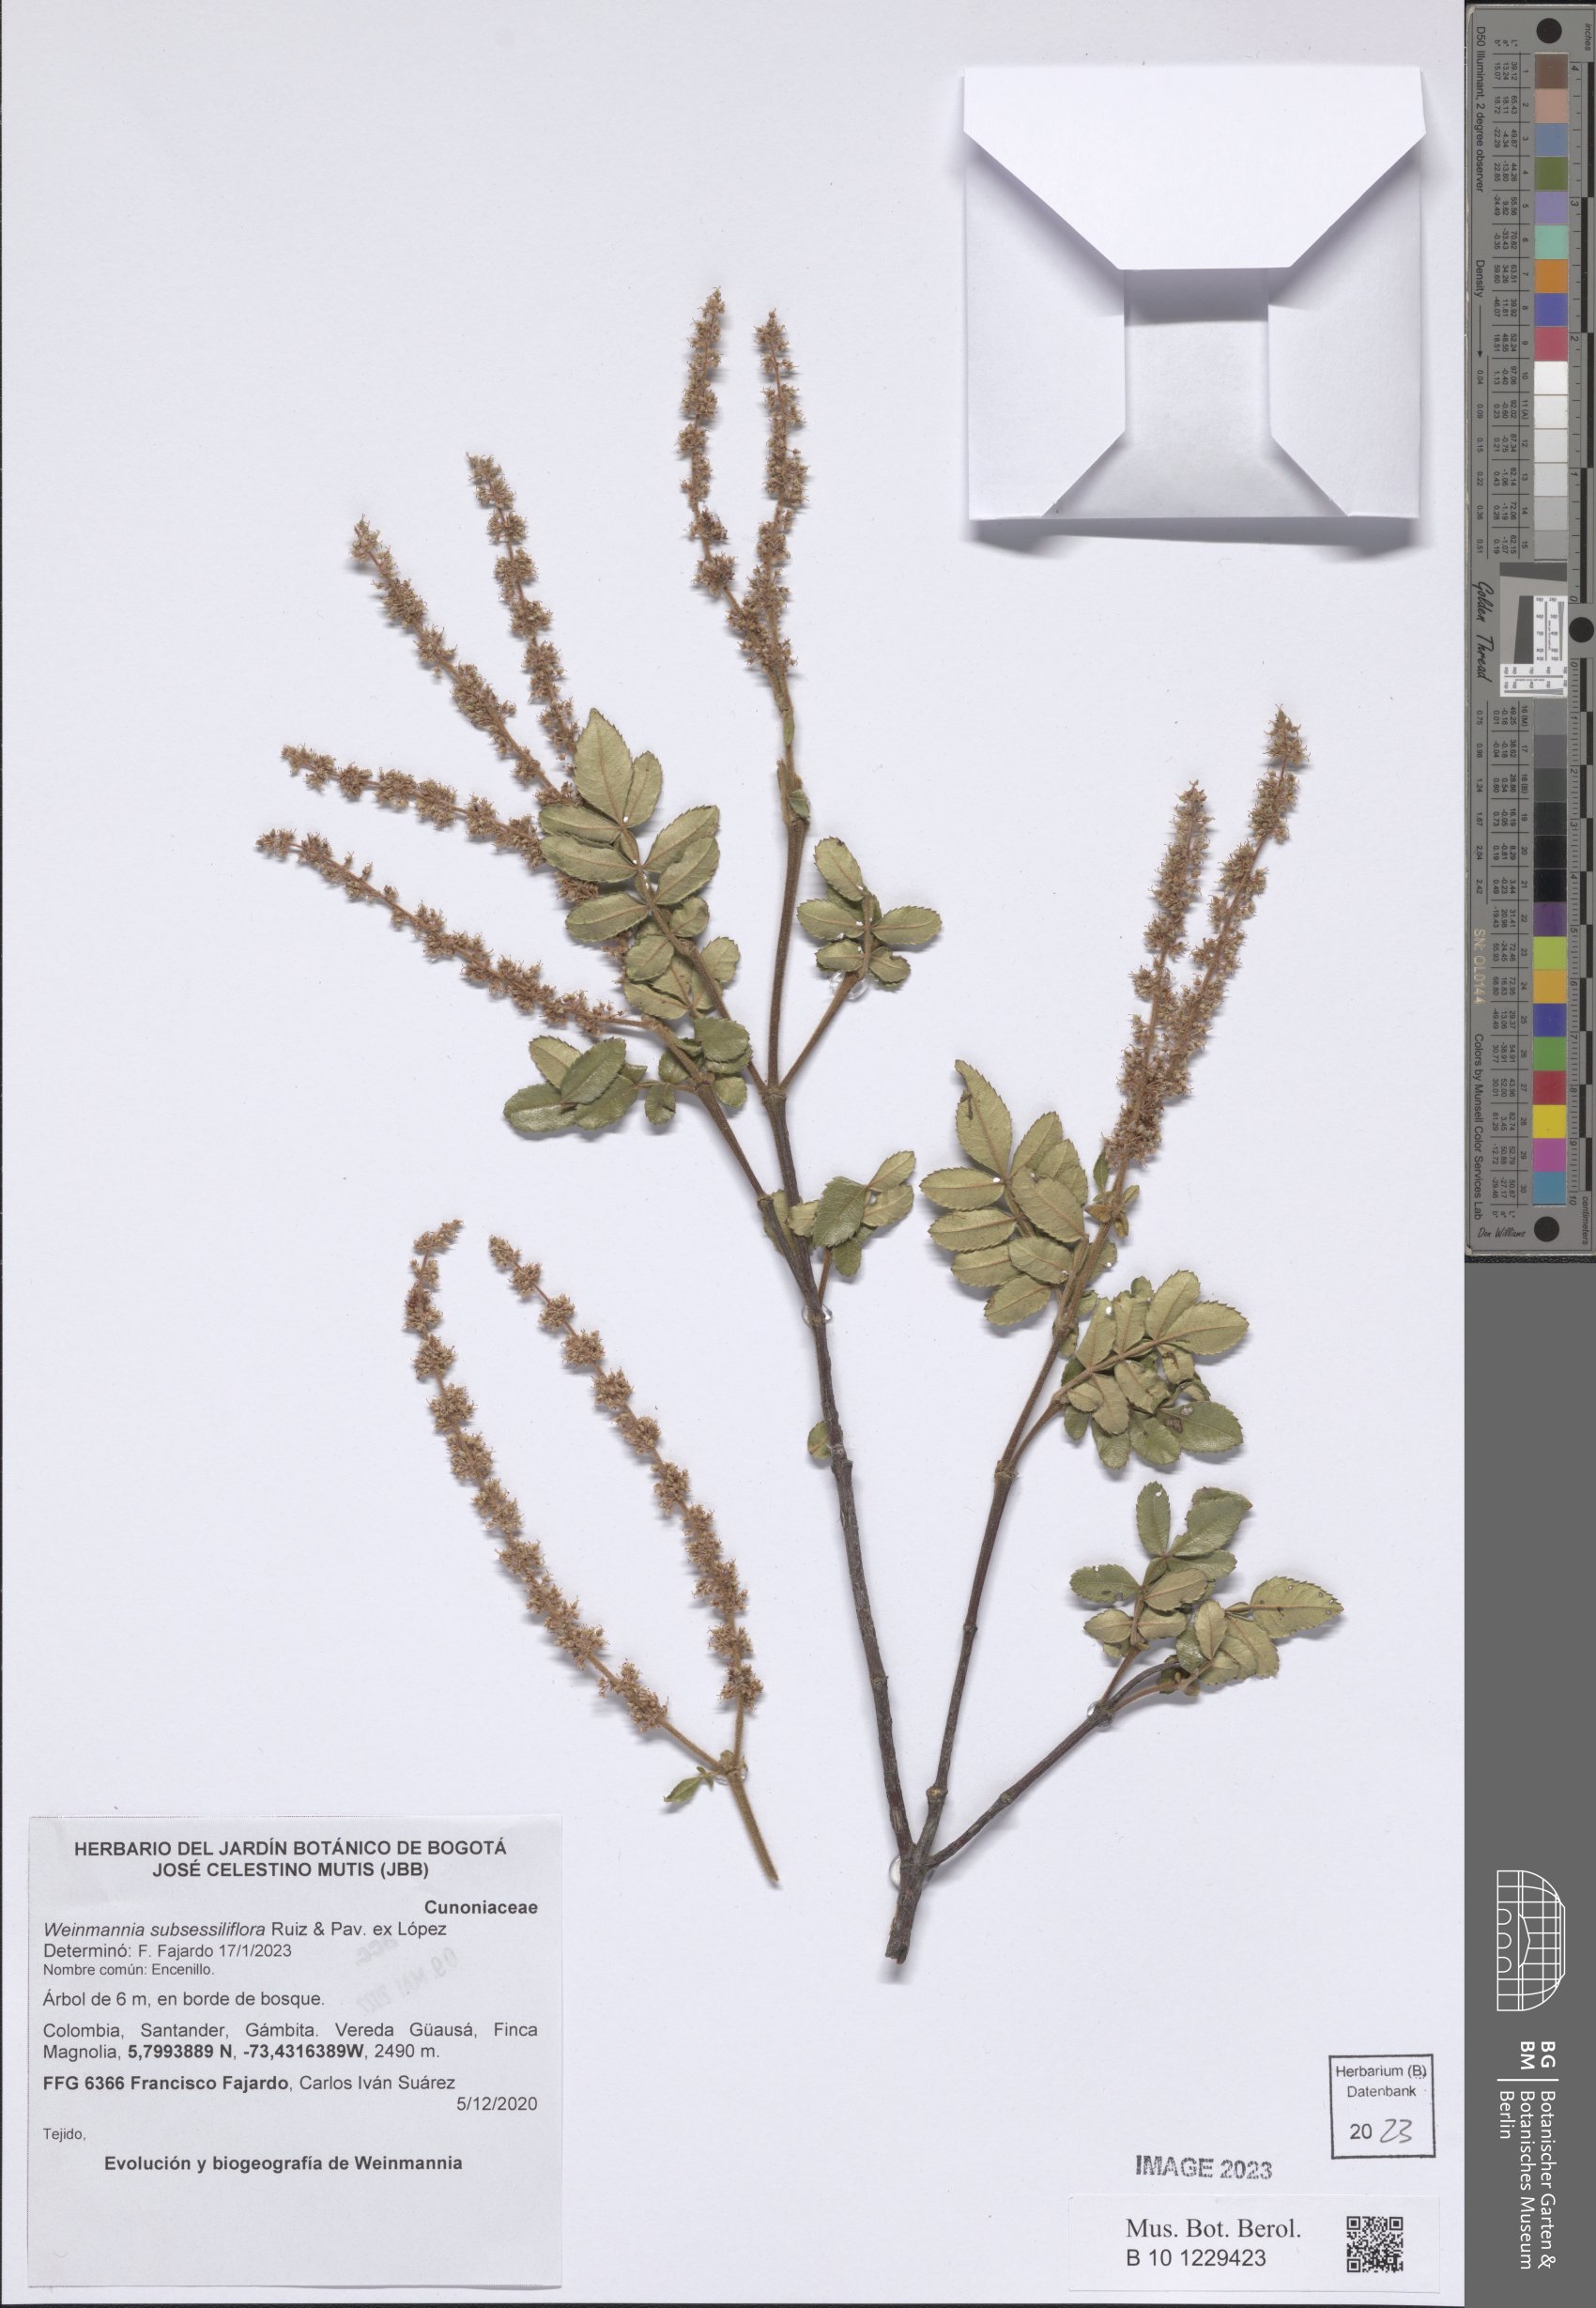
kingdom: Plantae
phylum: Tracheophyta
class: Magnoliopsida
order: Oxalidales
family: Cunoniaceae
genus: Weinmannia
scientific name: Weinmannia subsessiliflora
